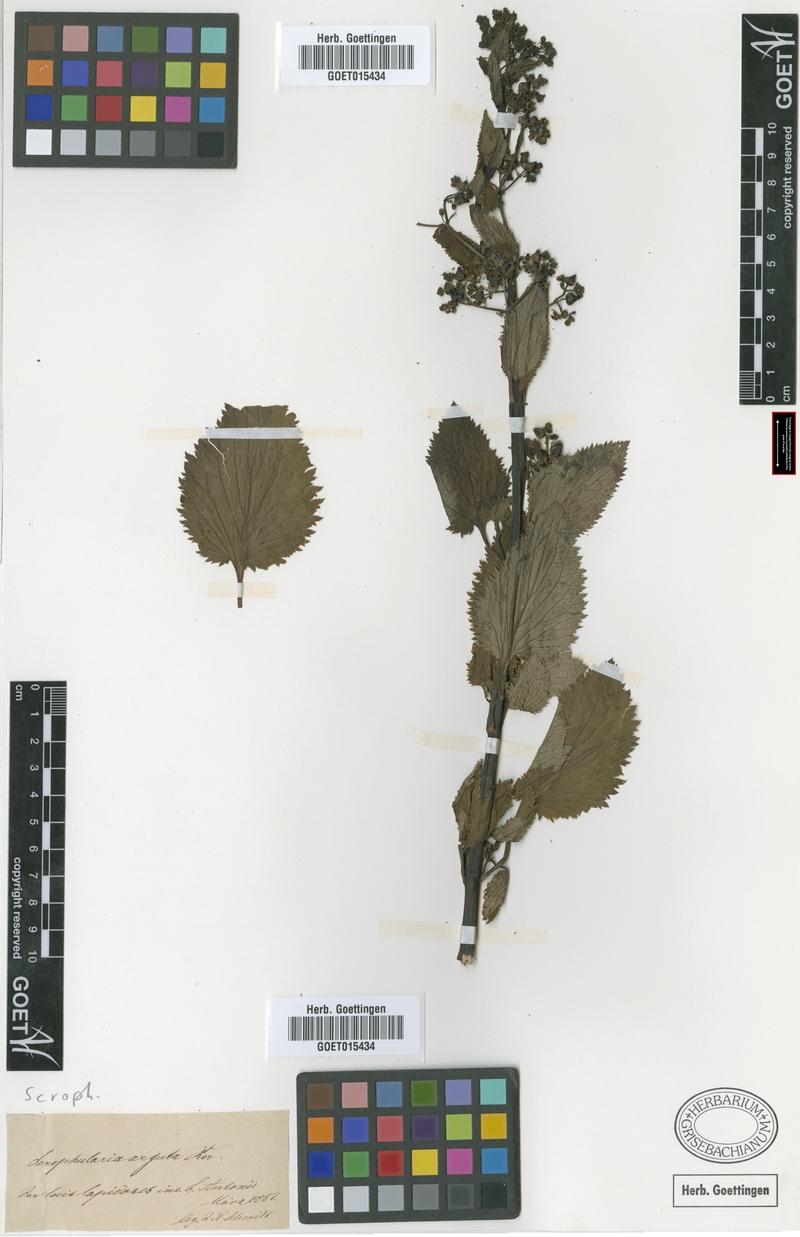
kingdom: Plantae
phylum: Tracheophyta
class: Magnoliopsida
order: Lamiales
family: Scrophulariaceae
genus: Scrophularia
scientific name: Scrophularia arguta
